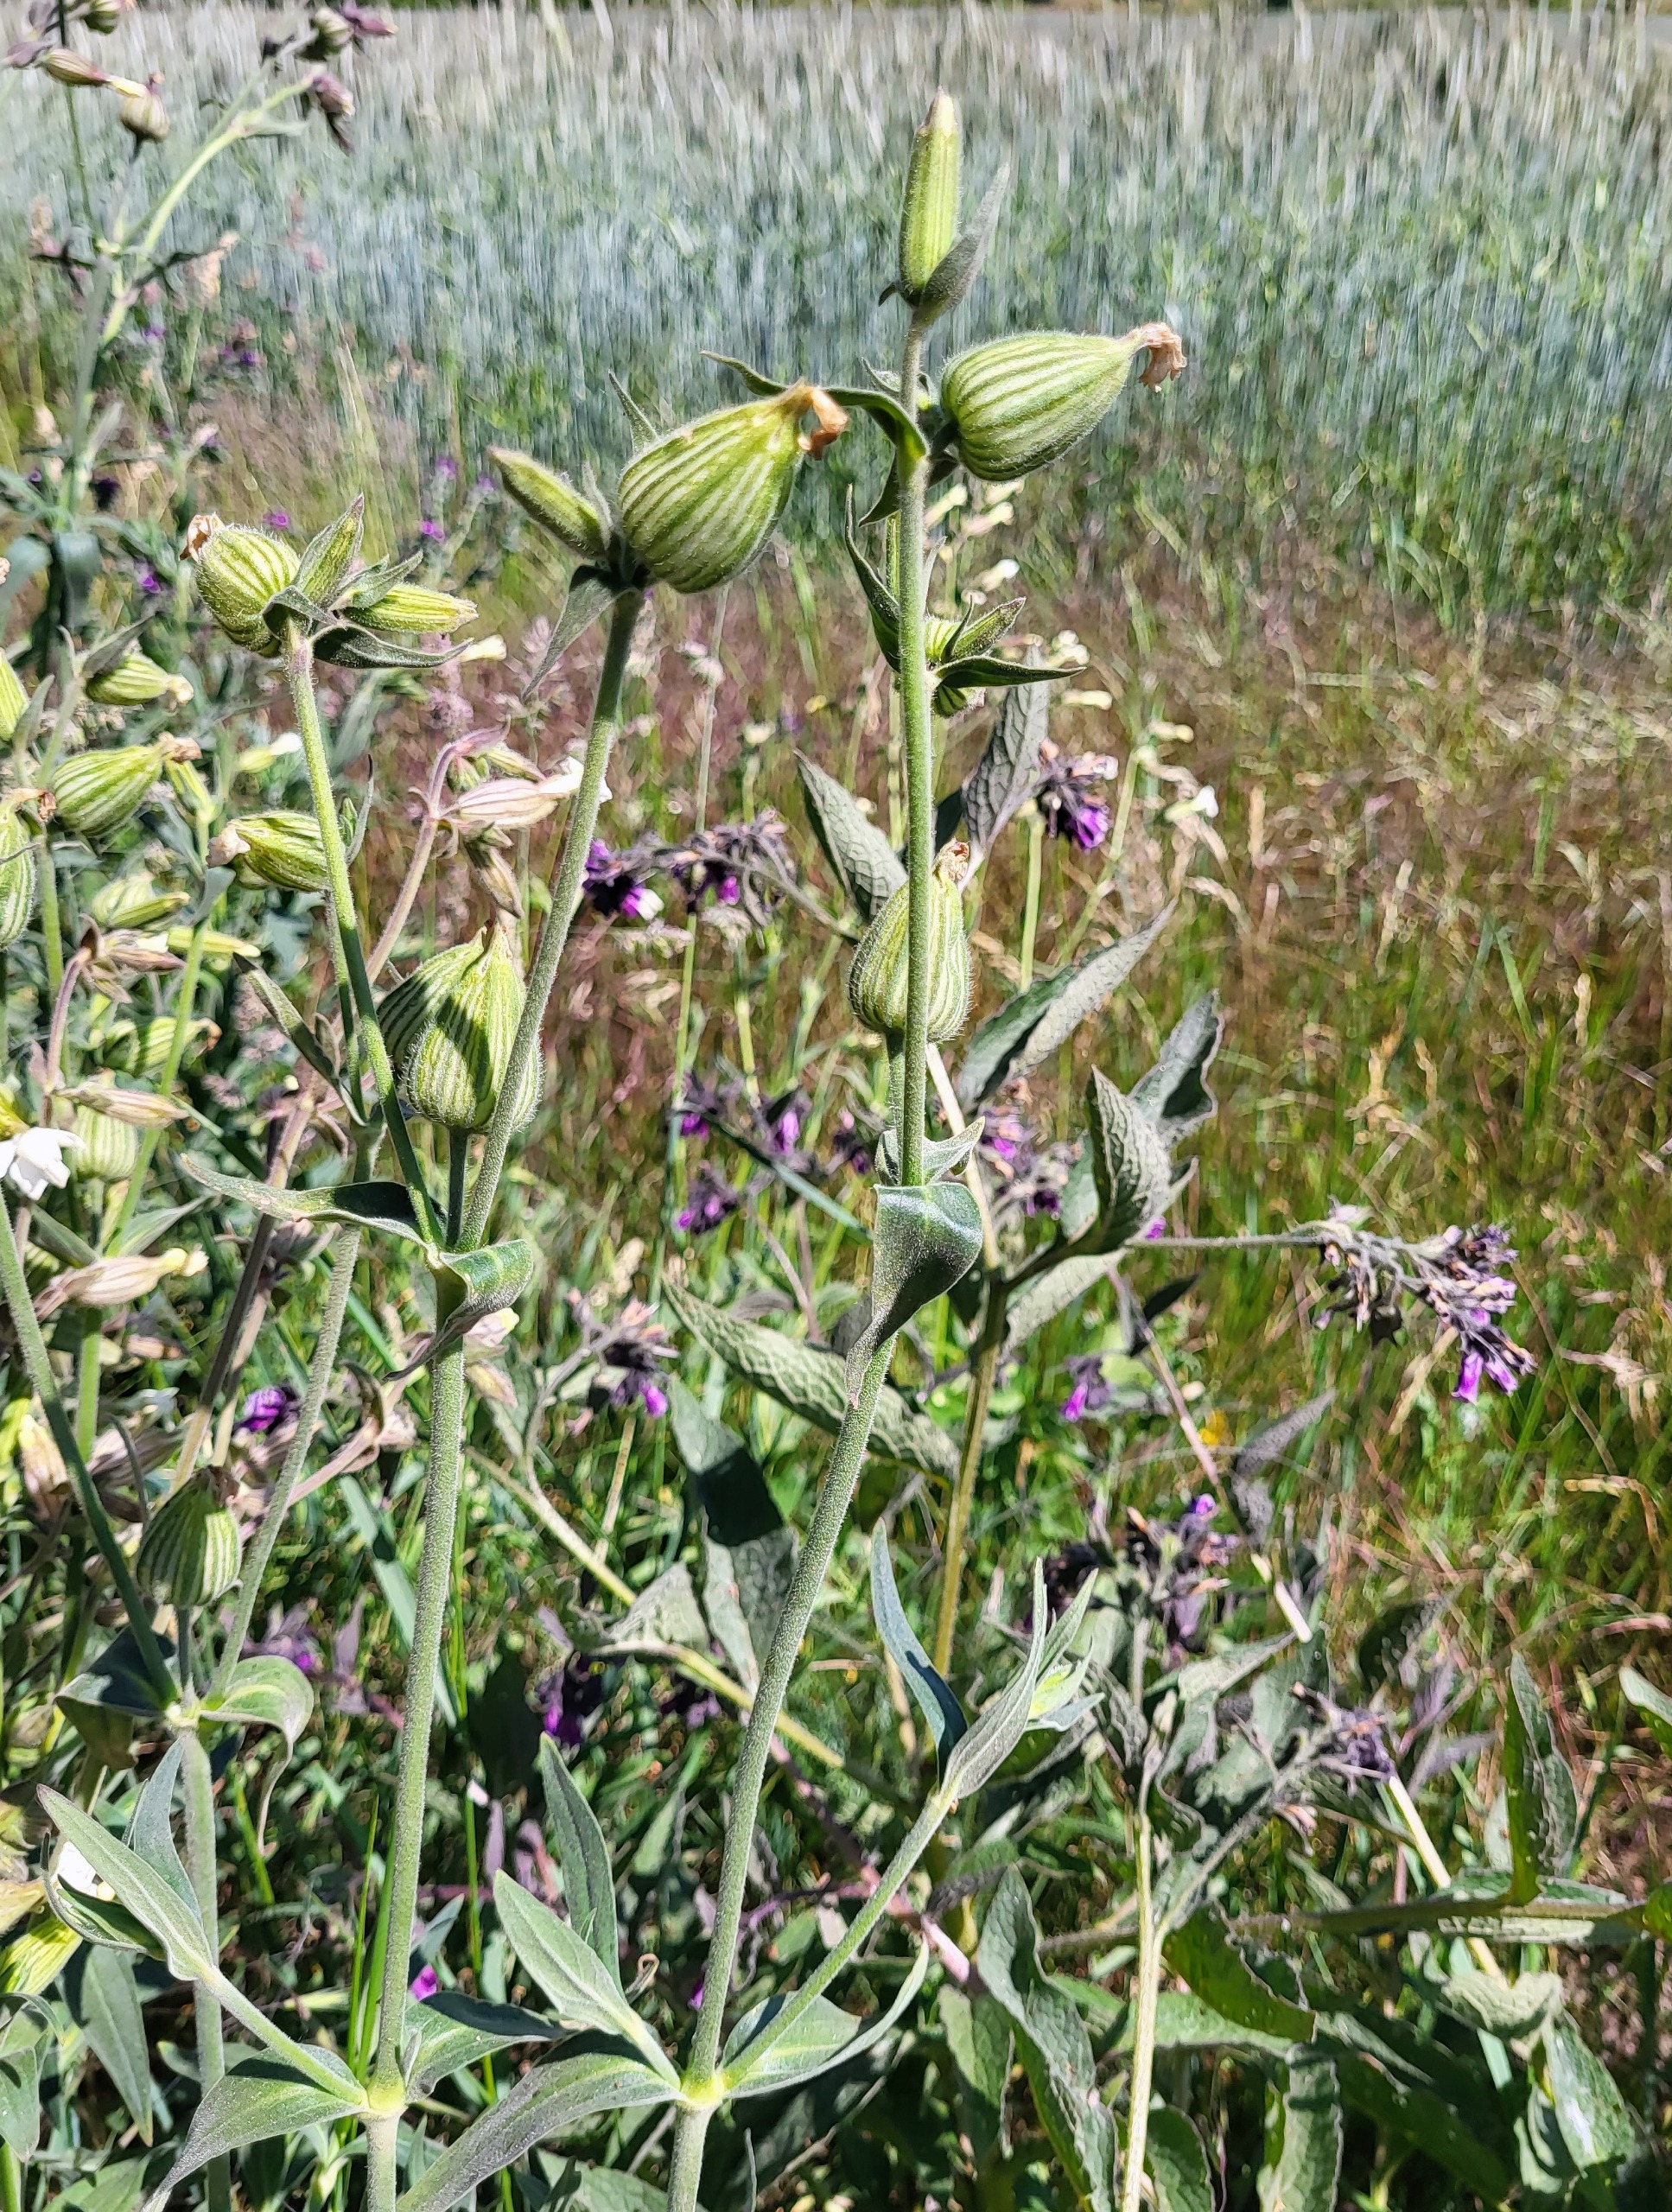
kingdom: Plantae
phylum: Tracheophyta
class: Magnoliopsida
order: Caryophyllales
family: Caryophyllaceae
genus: Silene
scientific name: Silene latifolia
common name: Aftenpragtstjerne
